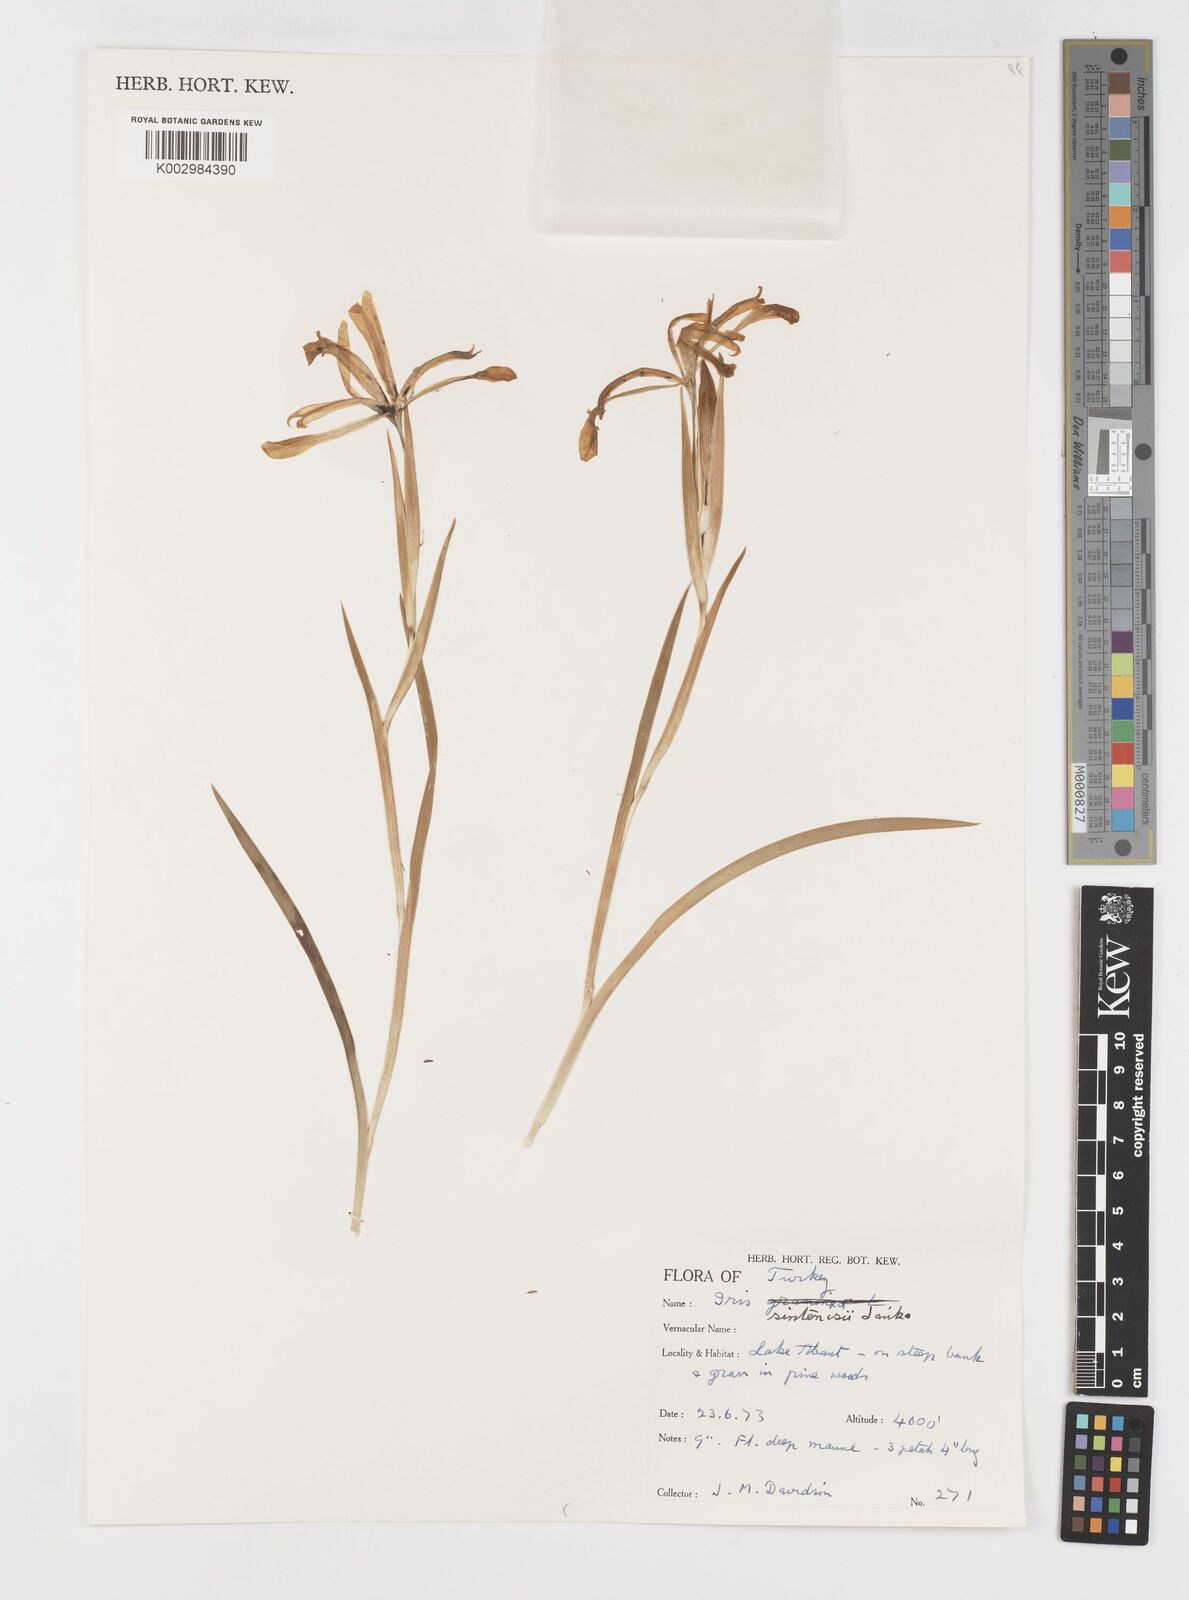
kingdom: Plantae
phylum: Tracheophyta
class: Liliopsida
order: Asparagales
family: Iridaceae
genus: Iris
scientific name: Iris sintenisii
